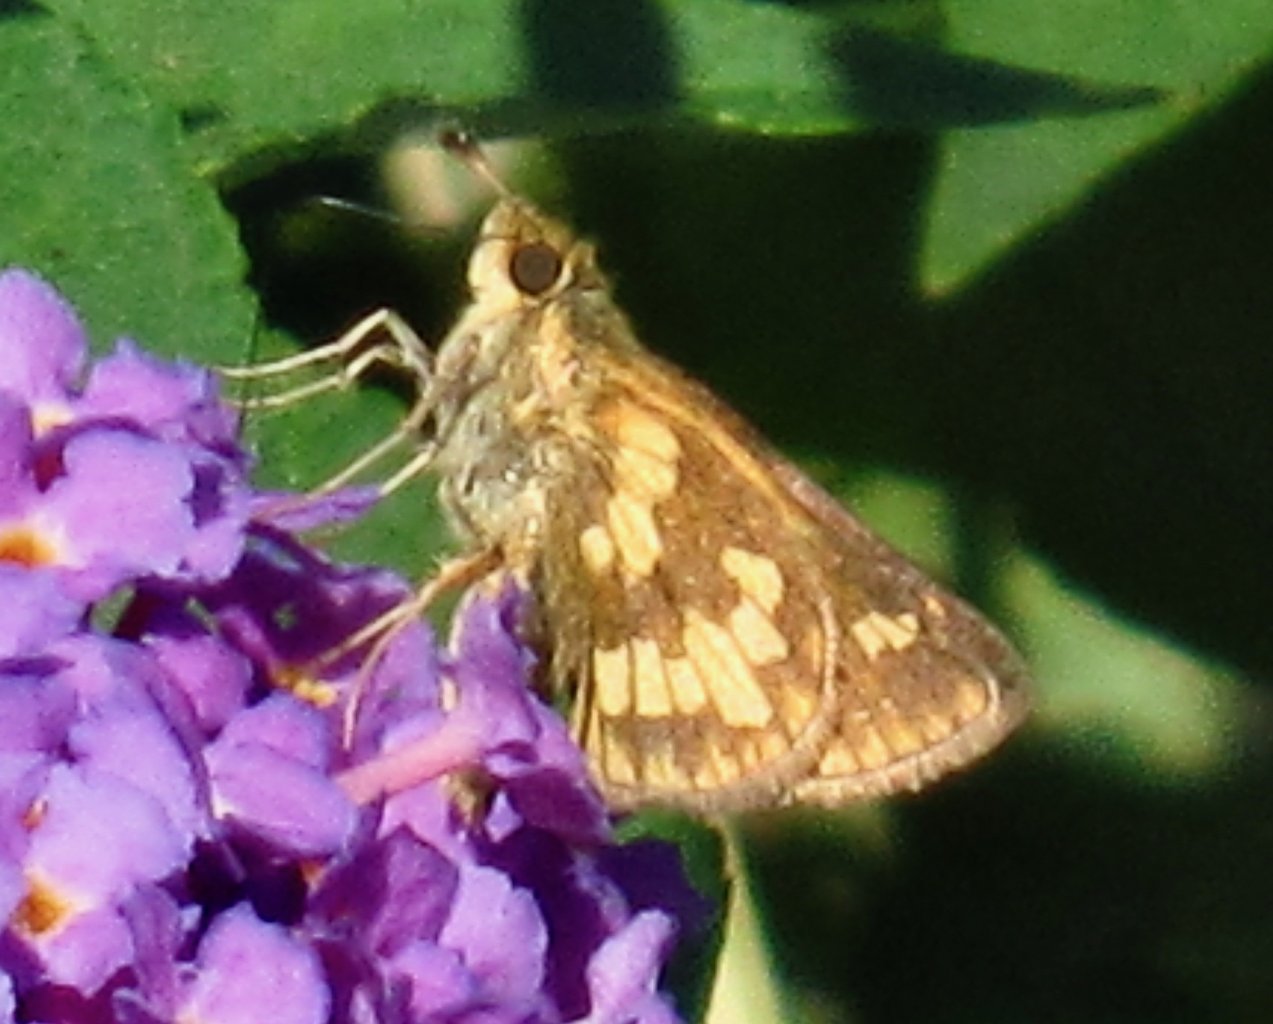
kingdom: Animalia
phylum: Arthropoda
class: Insecta
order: Lepidoptera
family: Hesperiidae
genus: Polites
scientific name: Polites coras
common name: Peck's Skipper
